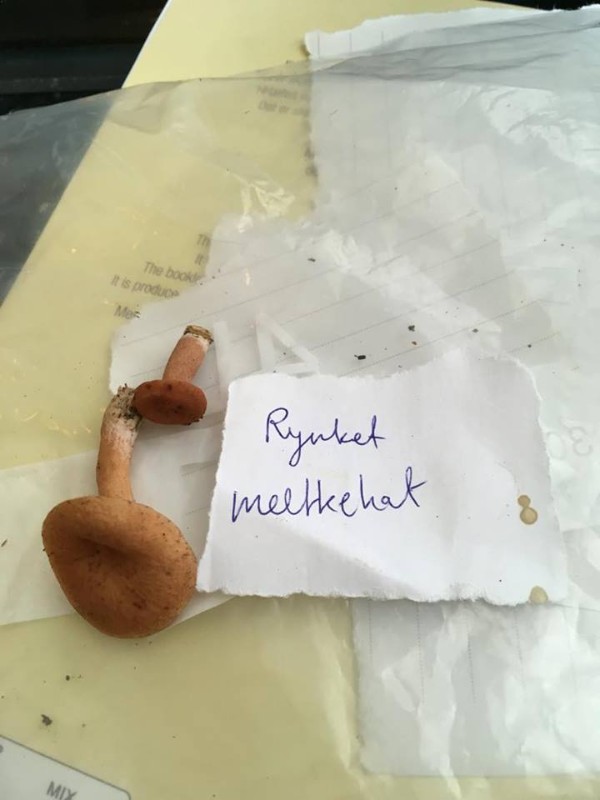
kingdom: Fungi
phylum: Basidiomycota
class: Agaricomycetes
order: Russulales
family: Russulaceae
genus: Lactarius
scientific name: Lactarius tabidus
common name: rynket mælkehat
